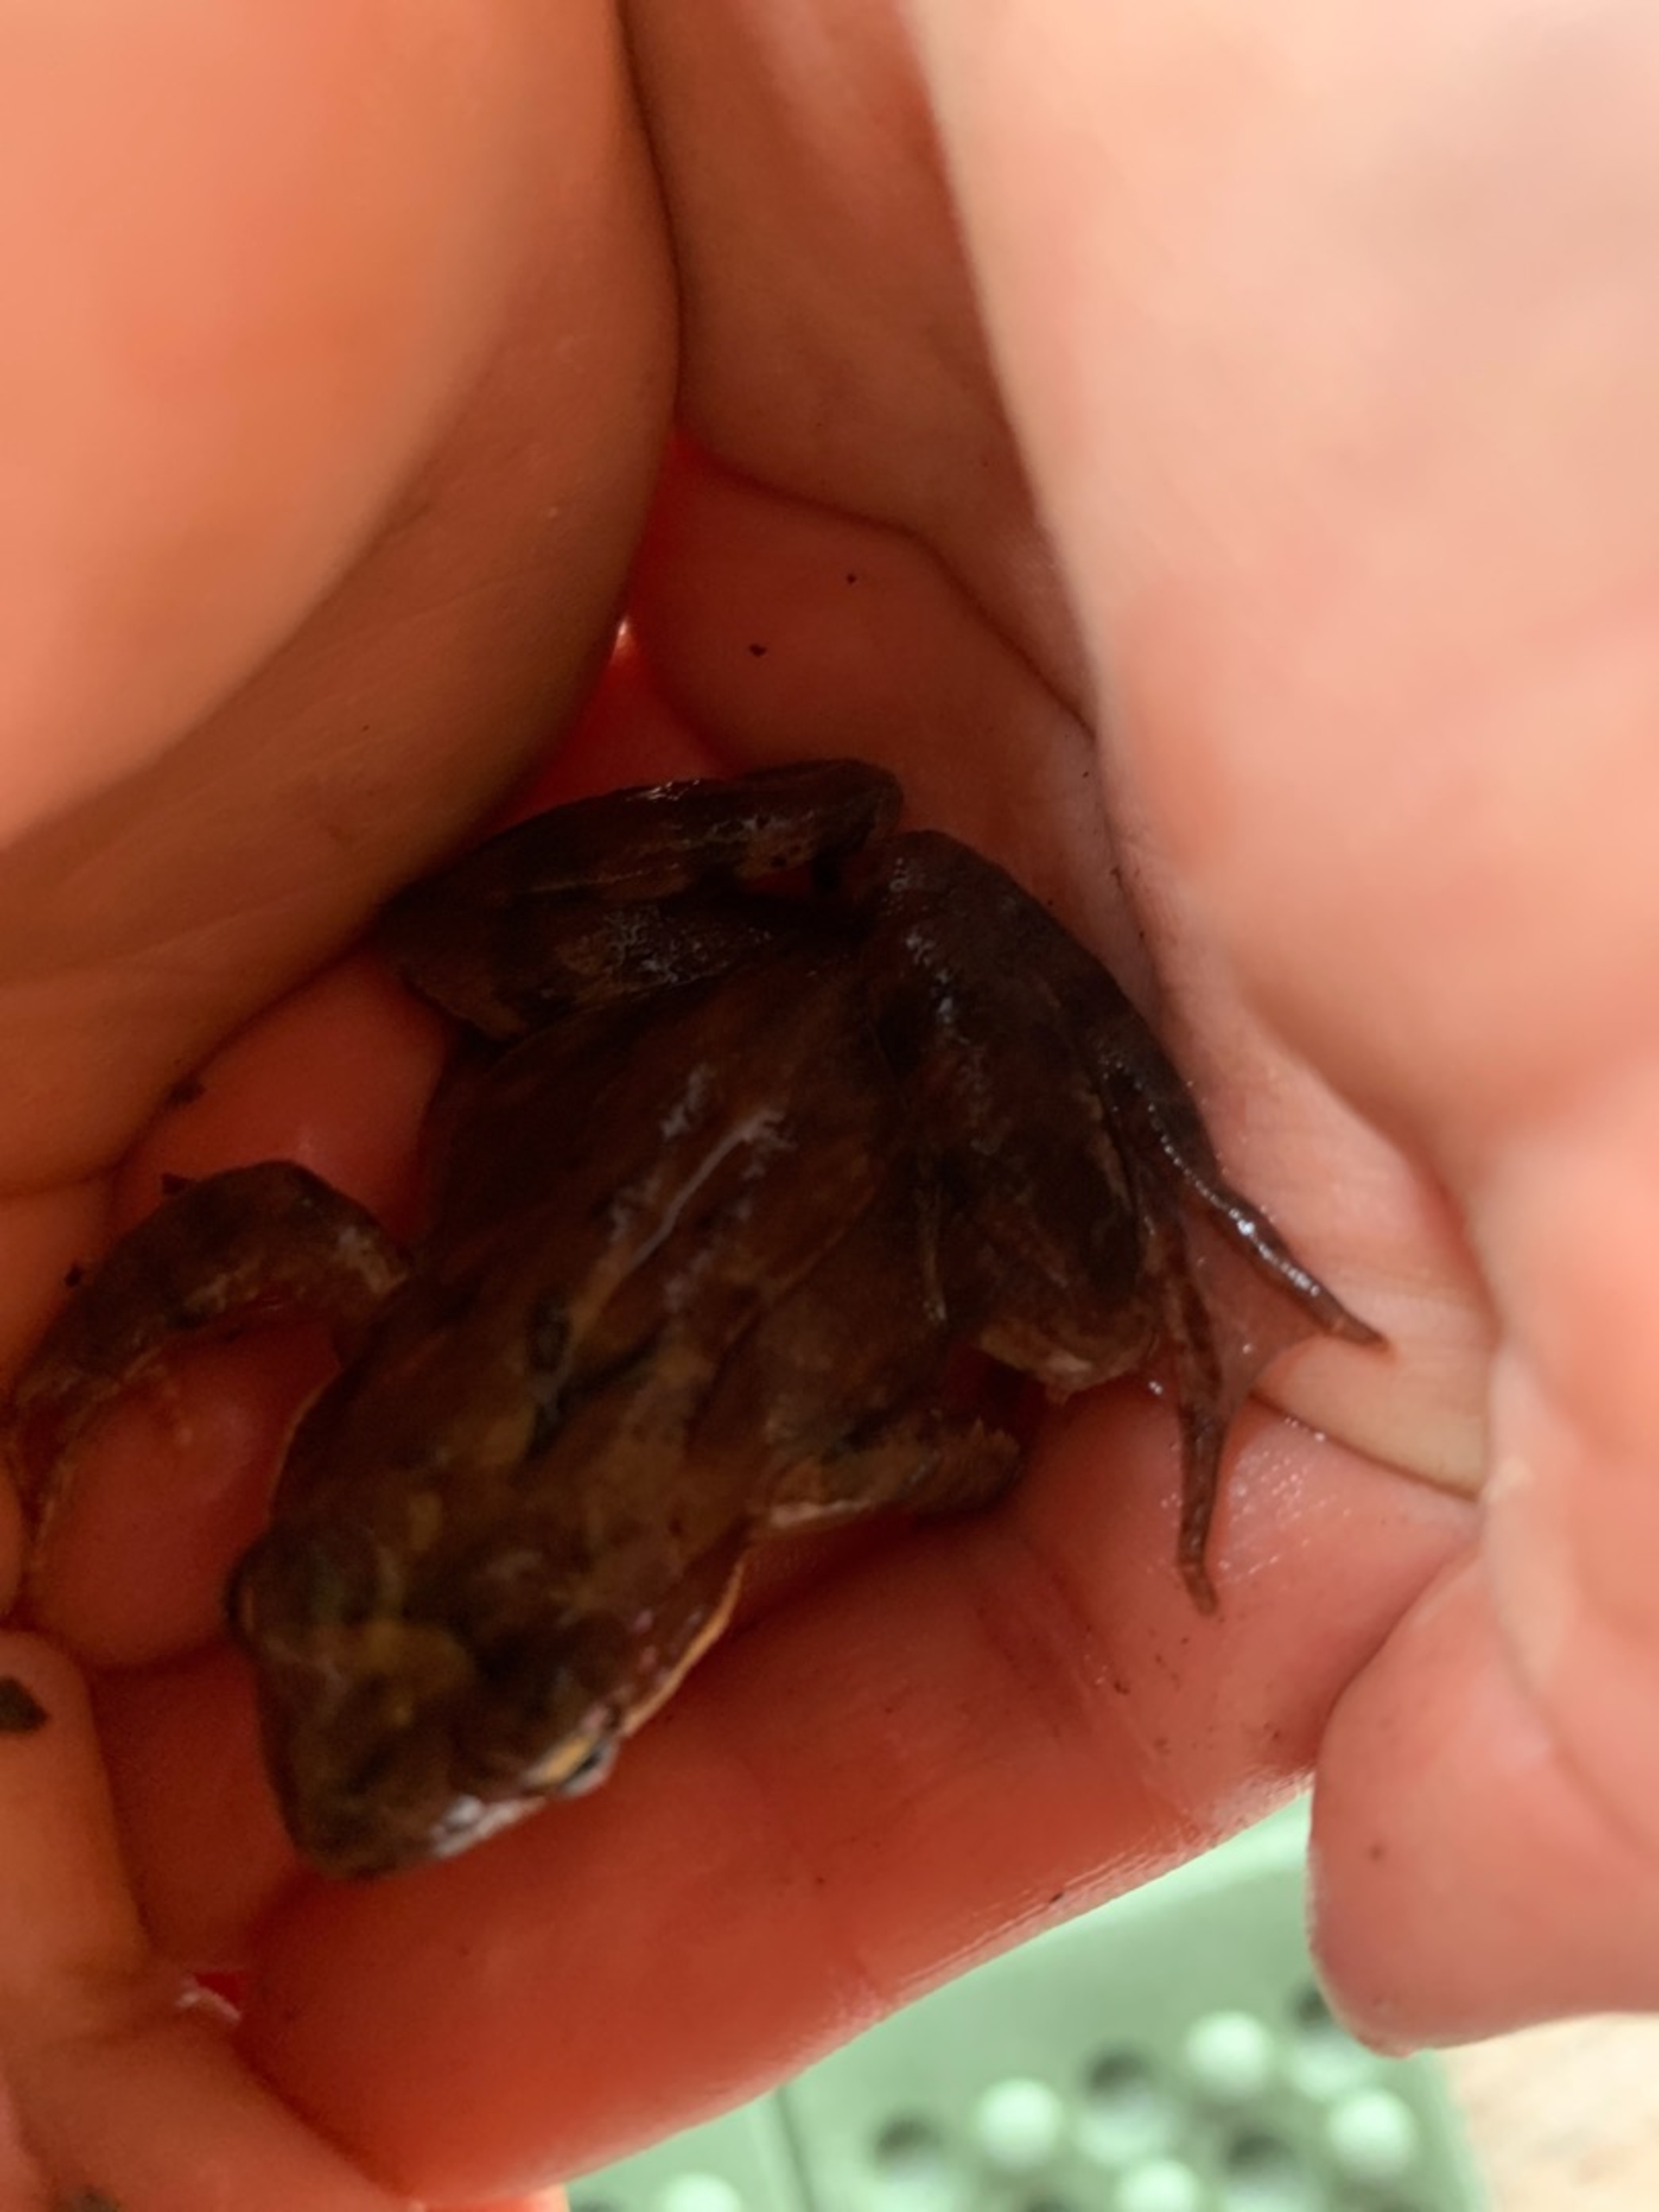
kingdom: Animalia
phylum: Chordata
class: Amphibia
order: Anura
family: Ranidae
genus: Rana
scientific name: Rana
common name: Rana
